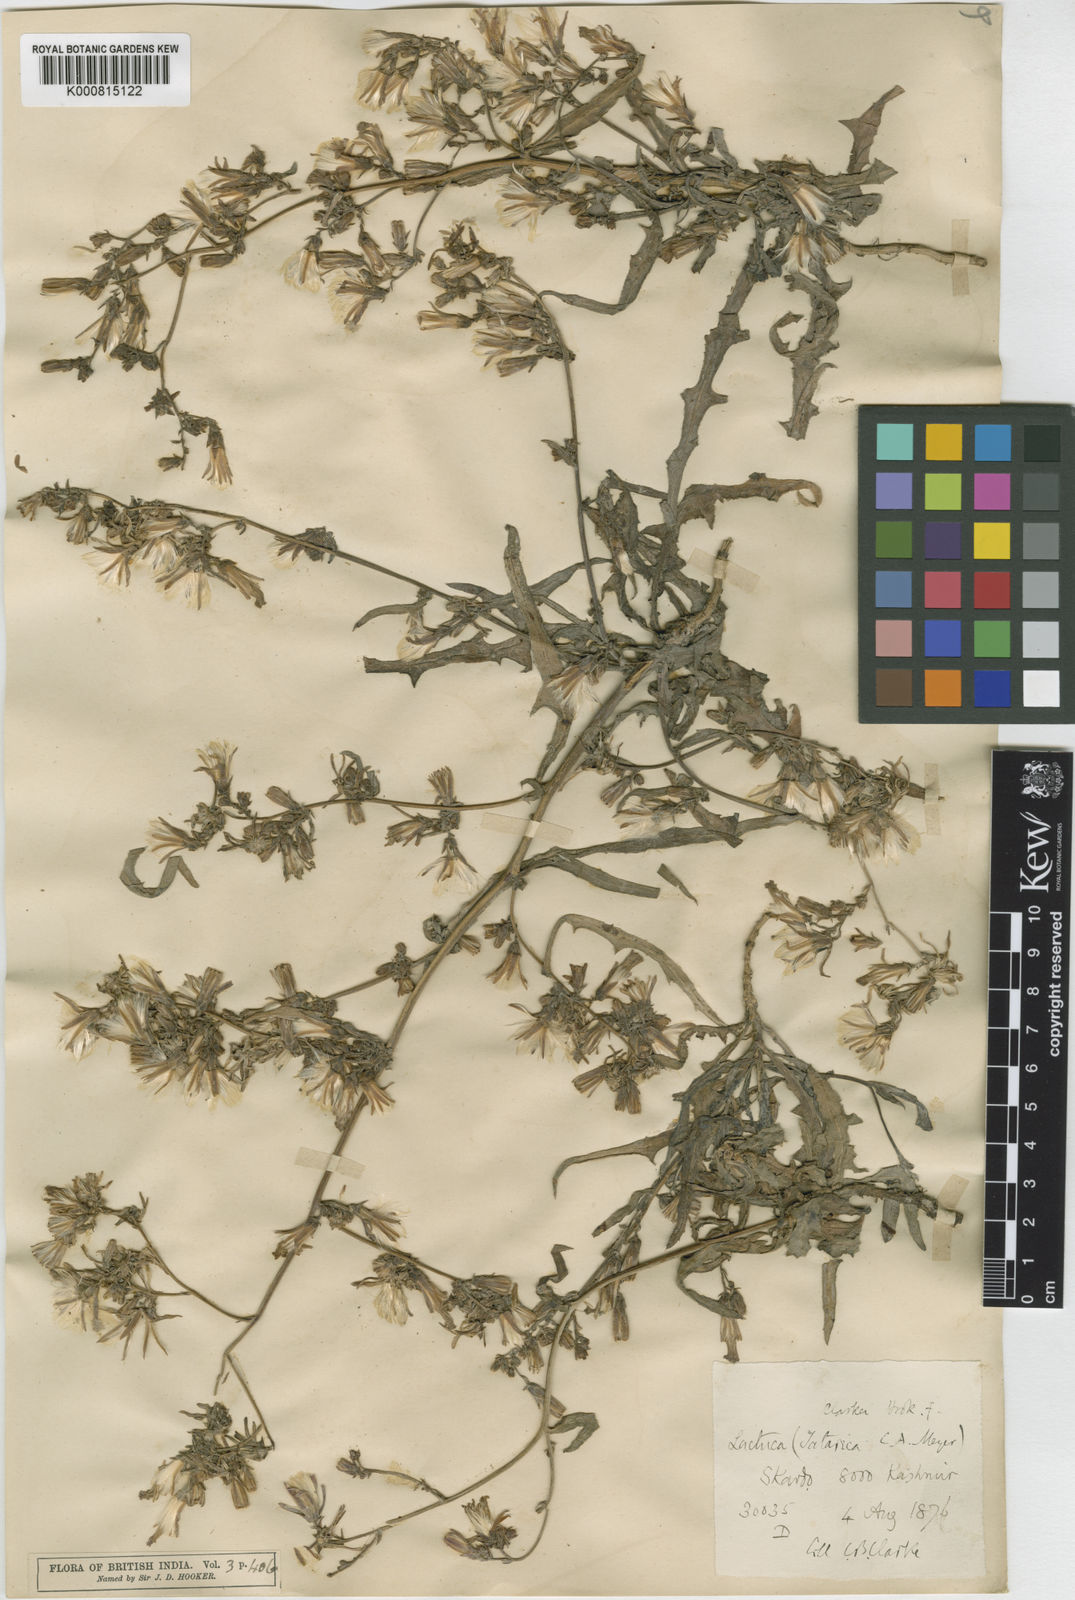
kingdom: Plantae
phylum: Tracheophyta
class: Magnoliopsida
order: Asterales
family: Asteraceae
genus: Lactuca
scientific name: Lactuca
